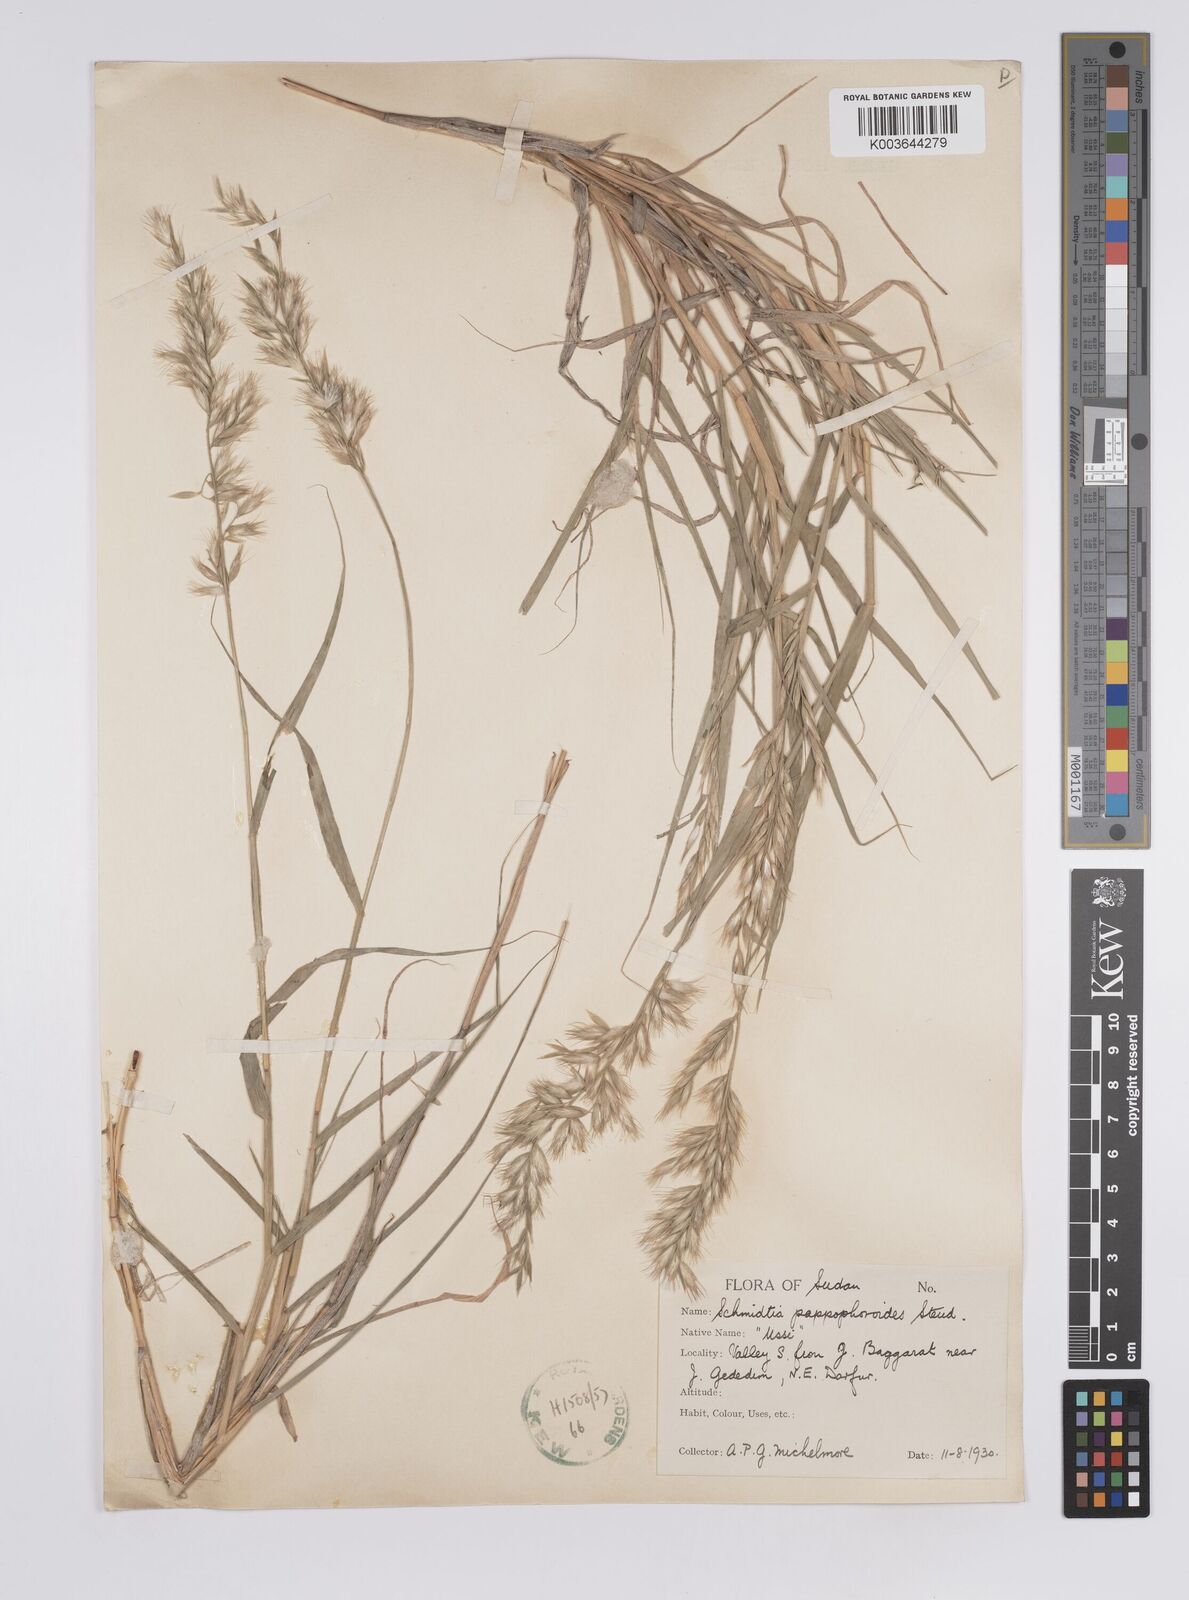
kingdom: Plantae
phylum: Tracheophyta
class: Liliopsida
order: Poales
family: Poaceae
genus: Schmidtia
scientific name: Schmidtia pappophoroides
